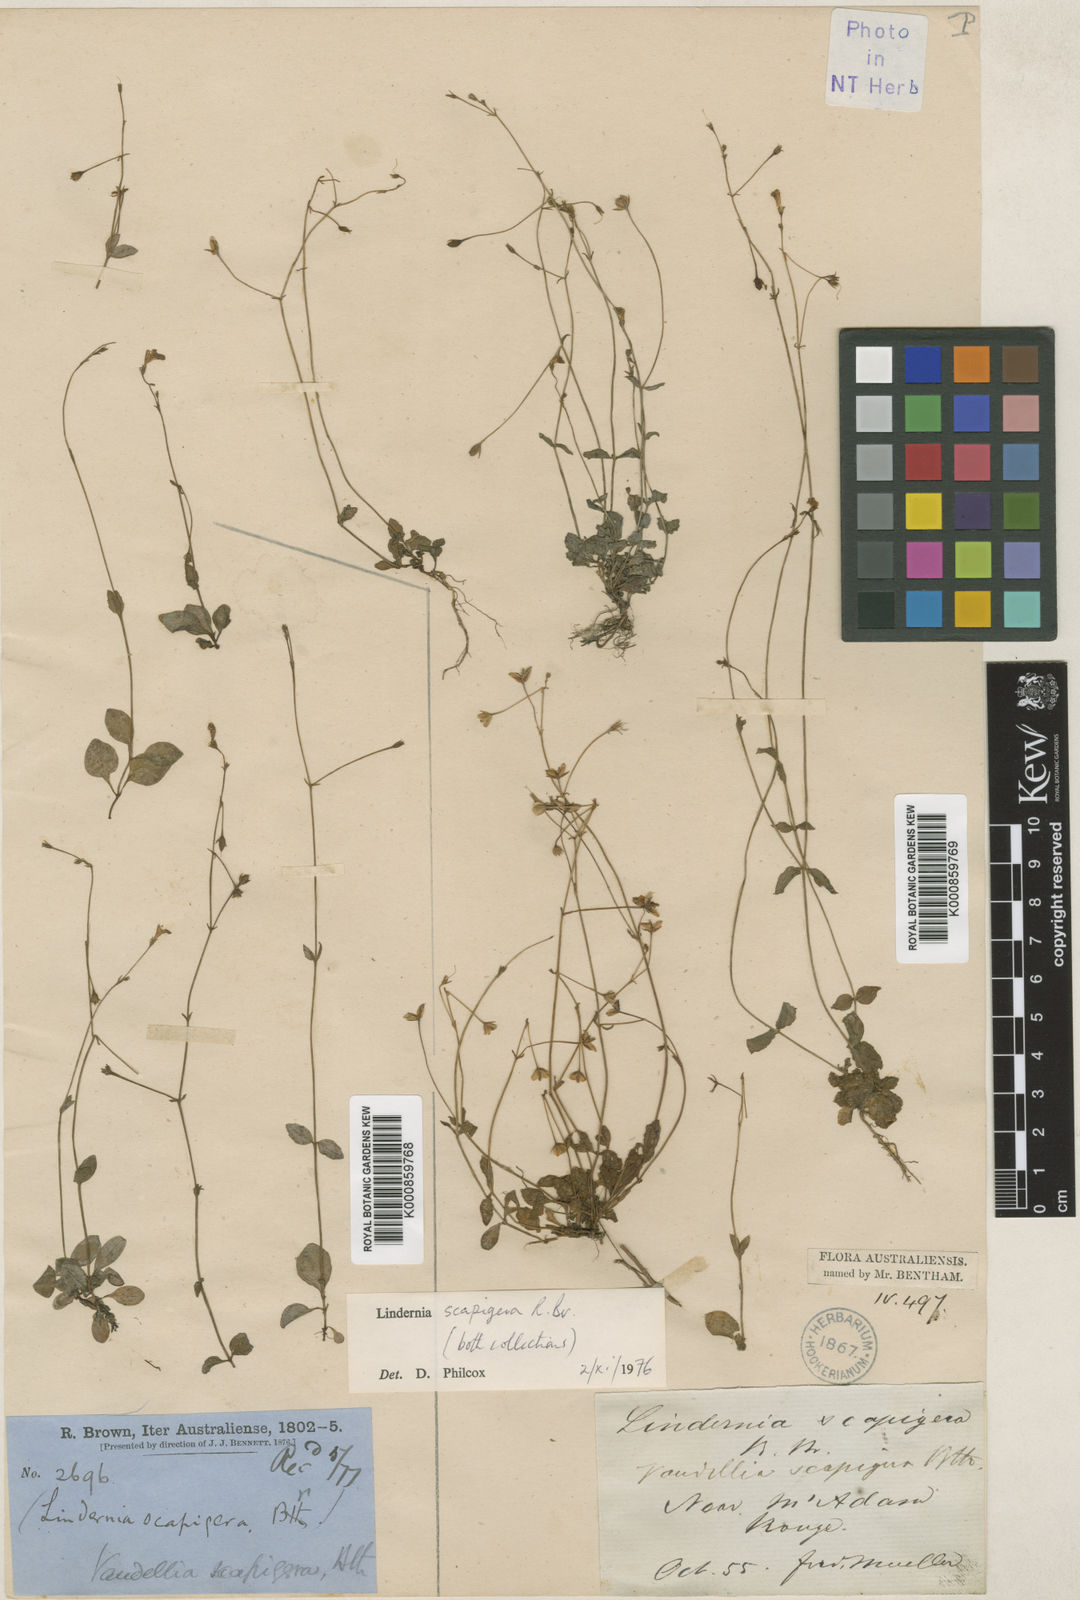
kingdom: Plantae
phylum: Tracheophyta
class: Magnoliopsida
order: Lamiales
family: Linderniaceae
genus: Vandellia
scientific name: Vandellia scapigera
